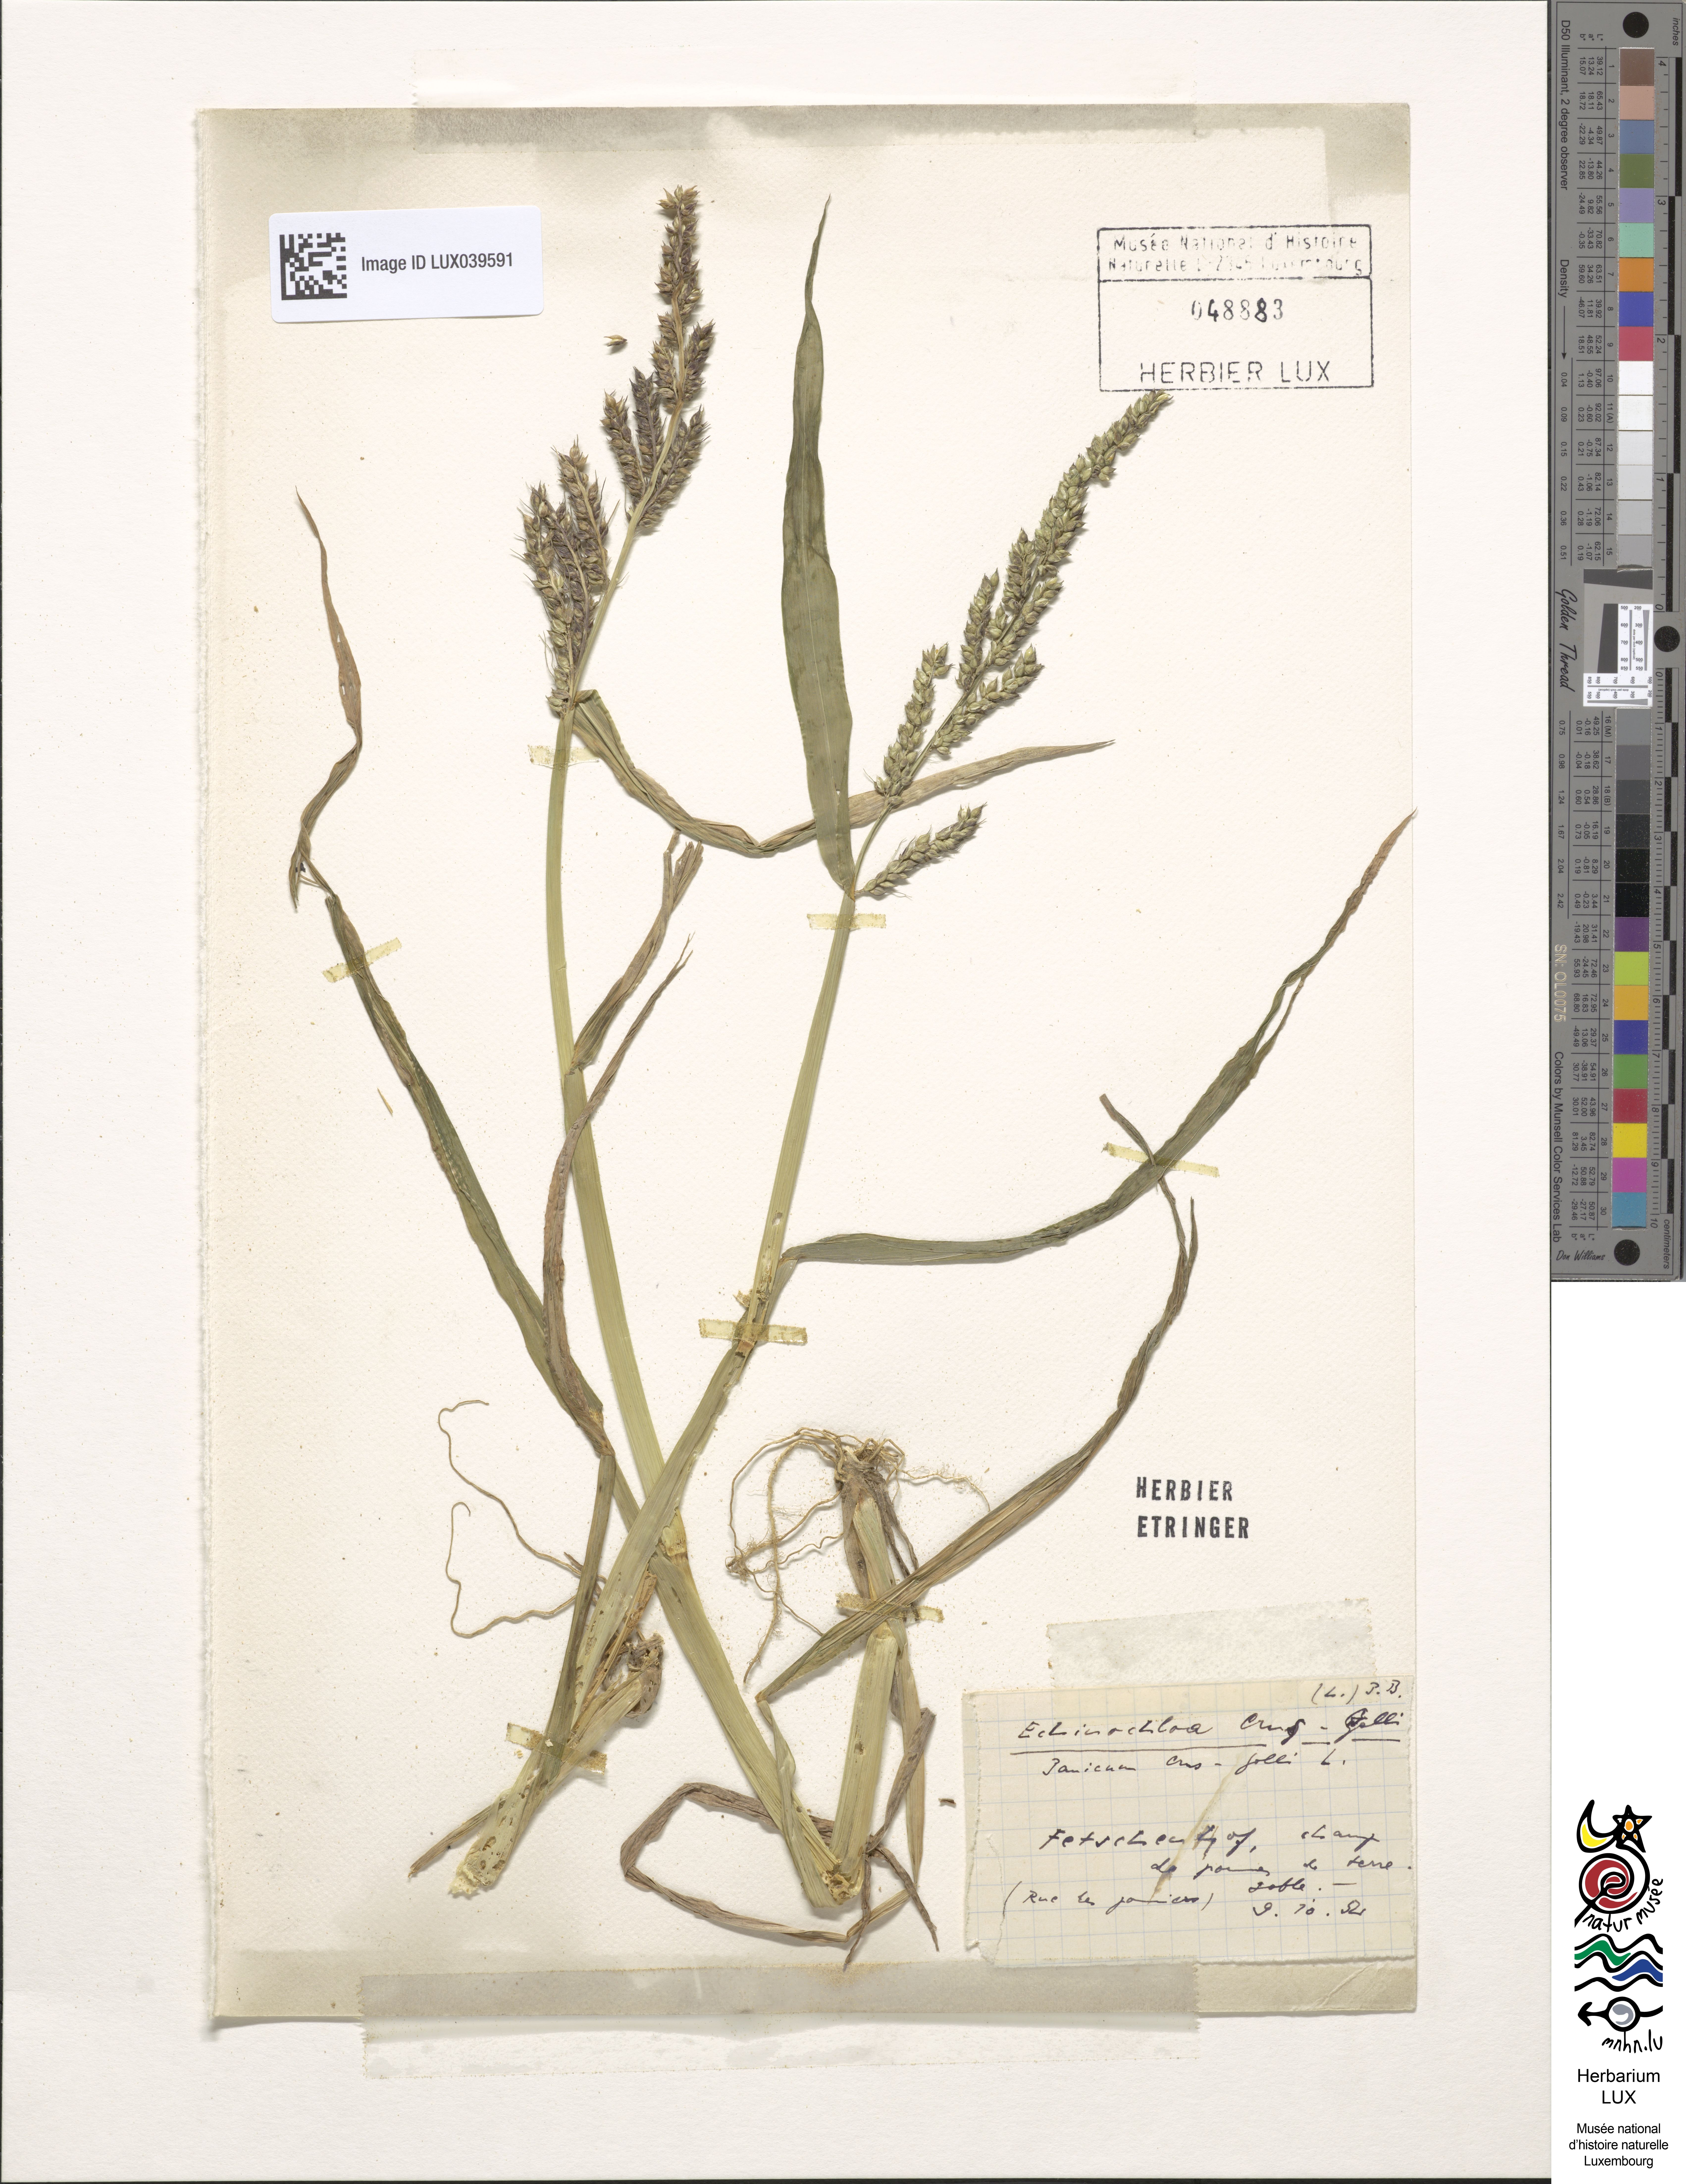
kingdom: Plantae
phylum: Tracheophyta
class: Liliopsida
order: Poales
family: Poaceae
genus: Echinochloa
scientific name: Echinochloa crus-galli
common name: Cockspur
